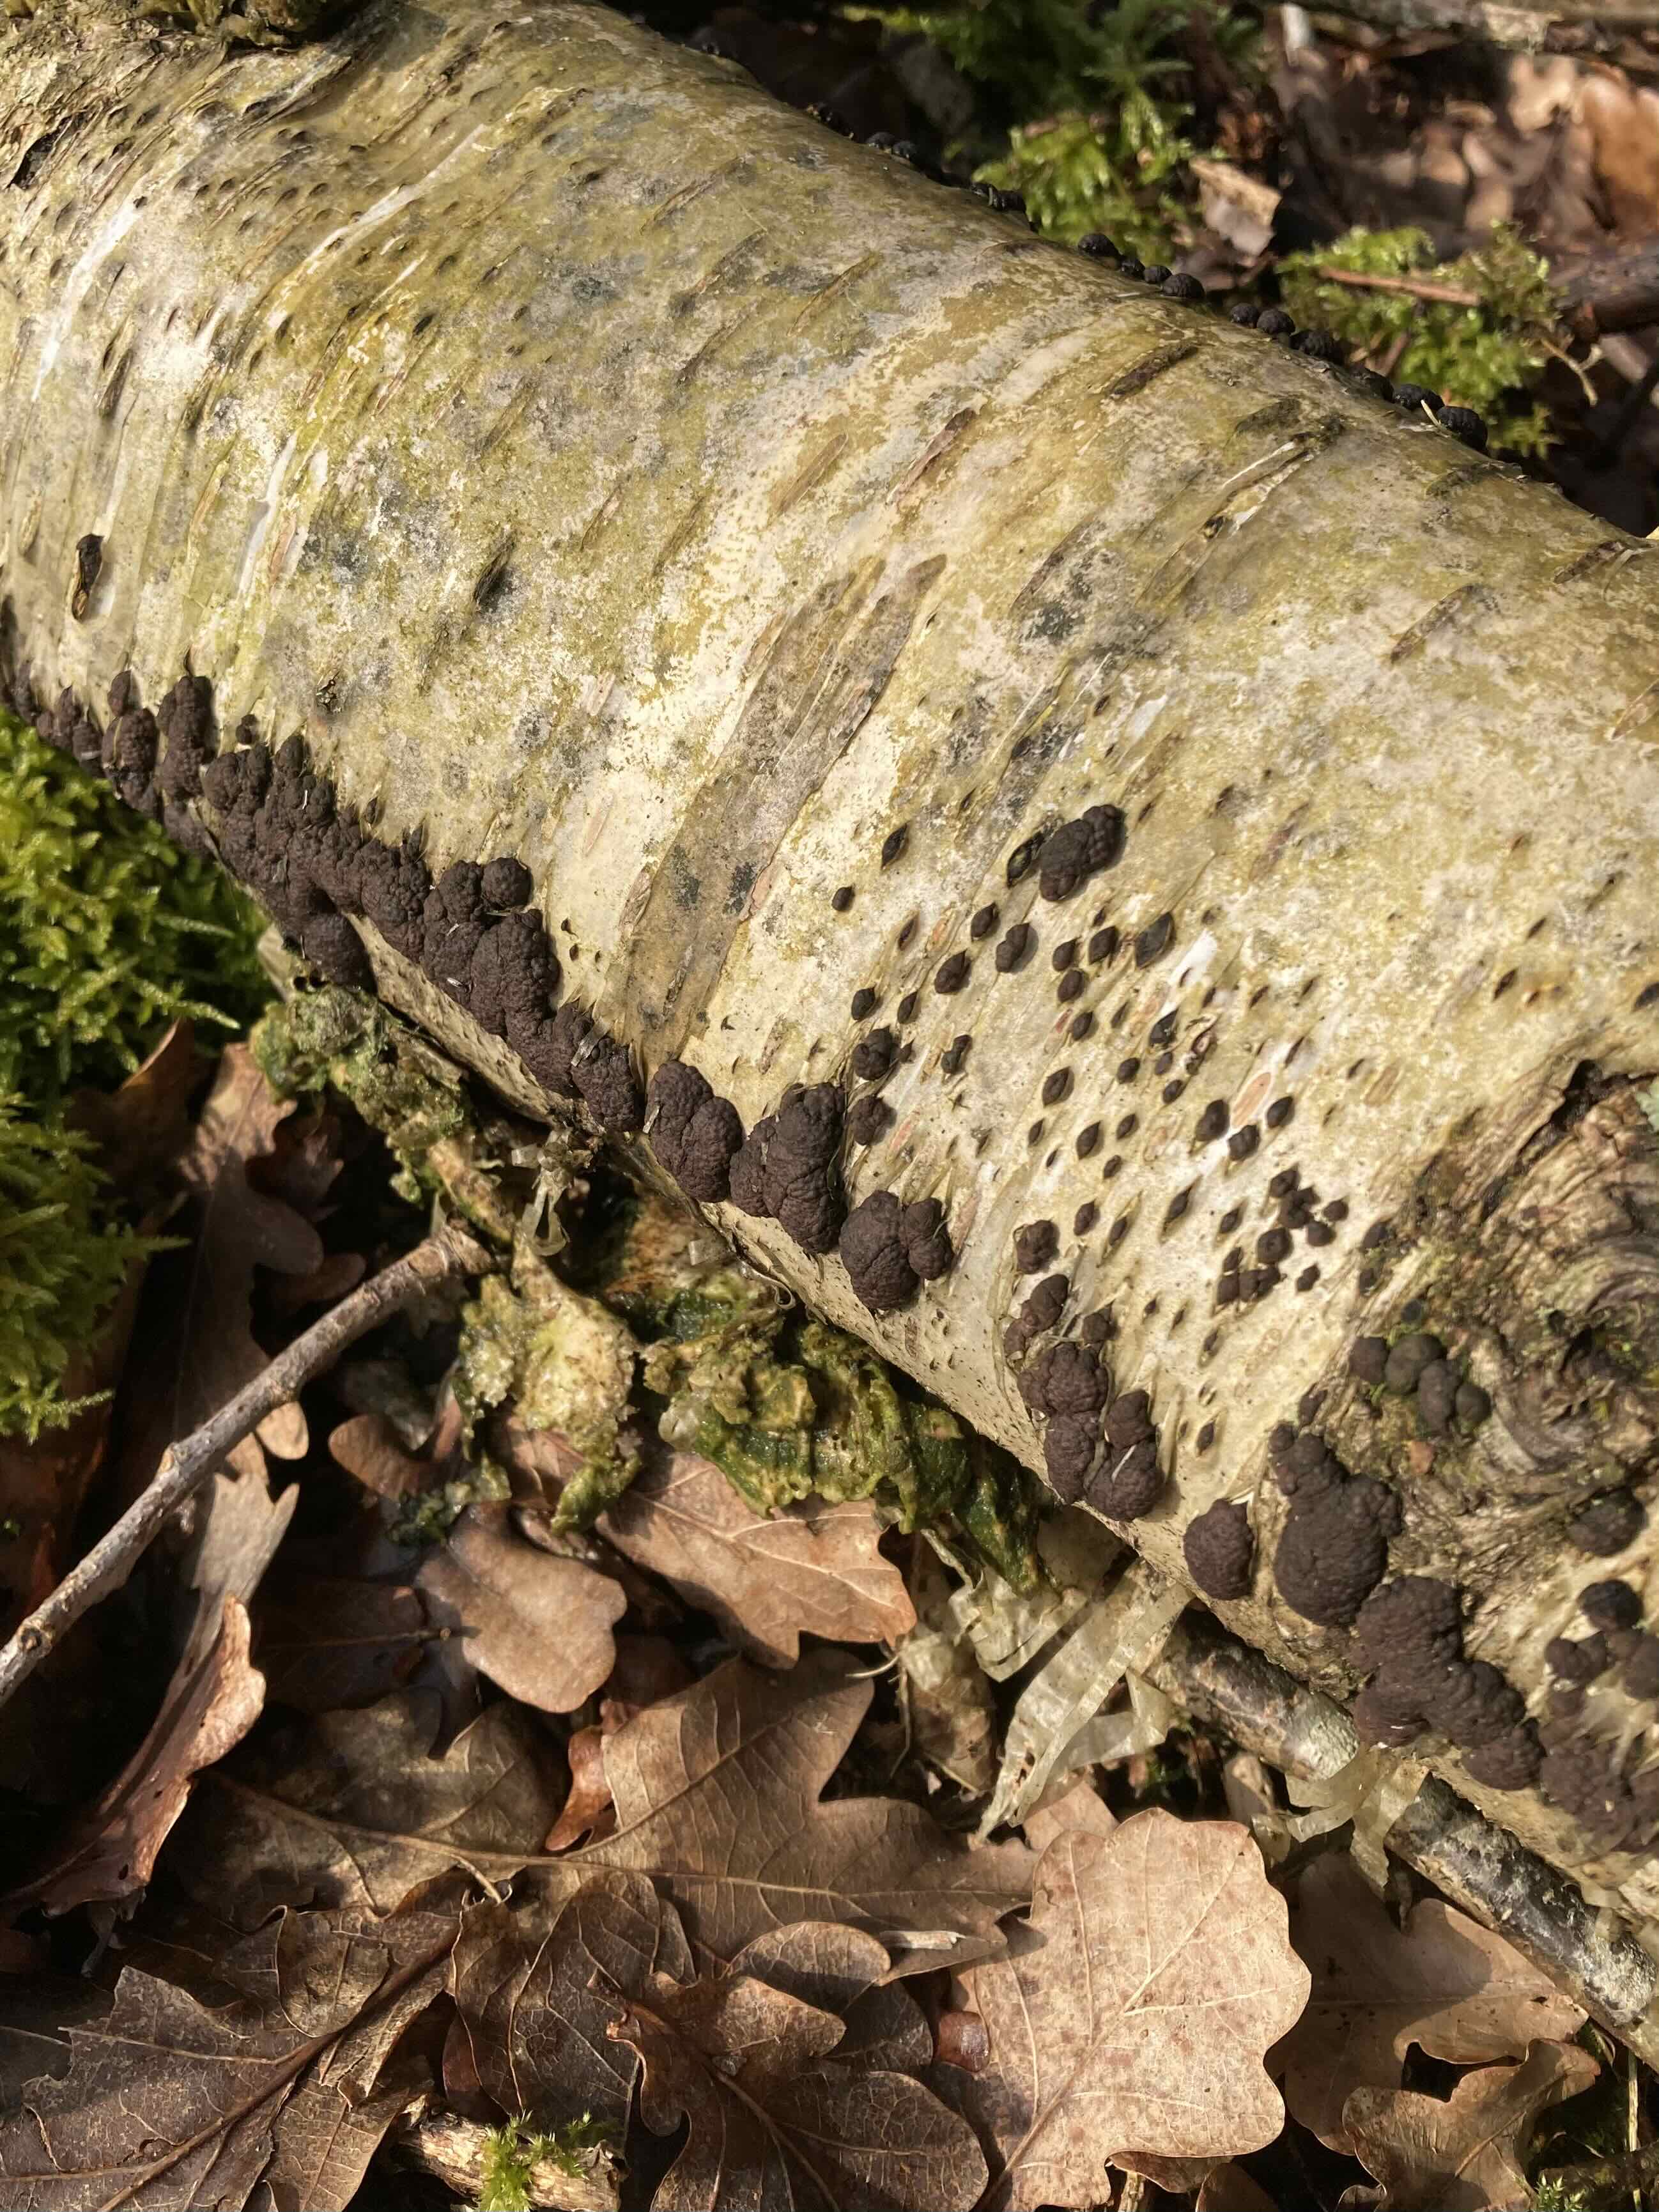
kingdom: Fungi
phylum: Ascomycota
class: Sordariomycetes
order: Xylariales
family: Hypoxylaceae
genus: Jackrogersella
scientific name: Jackrogersella multiformis
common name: foranderlig kulbær
